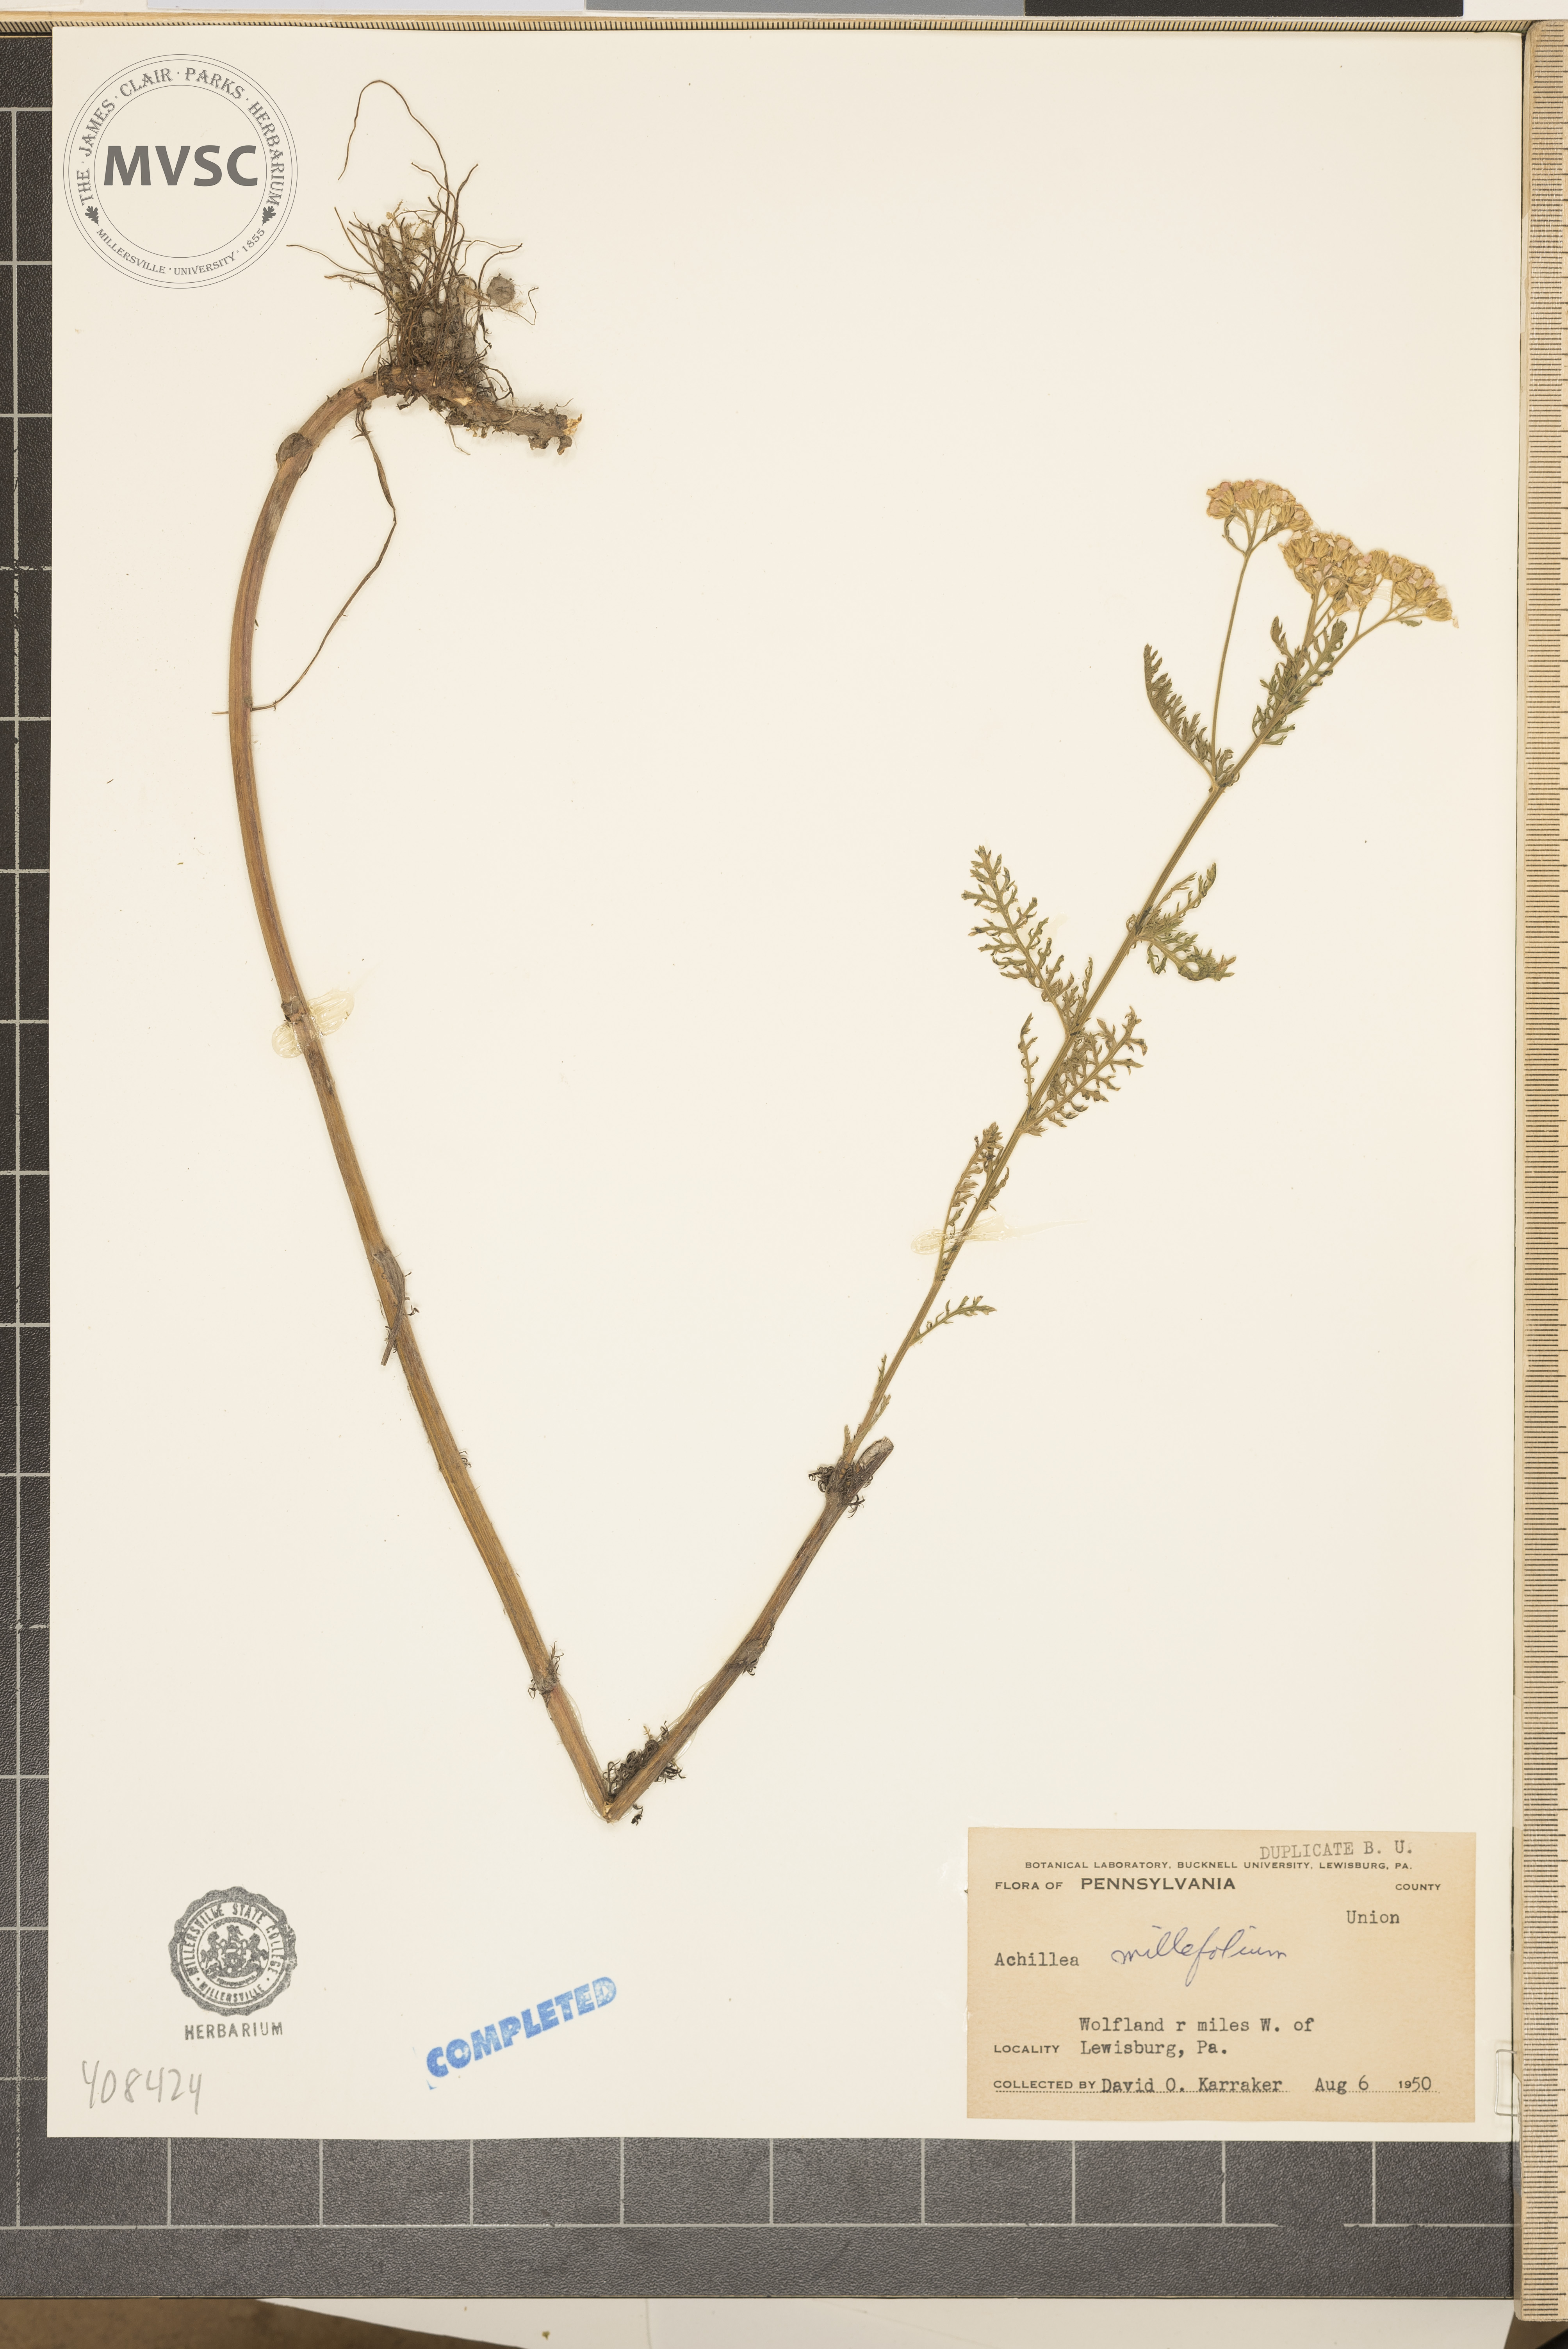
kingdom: Plantae
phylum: Tracheophyta
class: Magnoliopsida
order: Asterales
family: Asteraceae
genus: Achillea
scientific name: Achillea millefolium
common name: Yarrow
